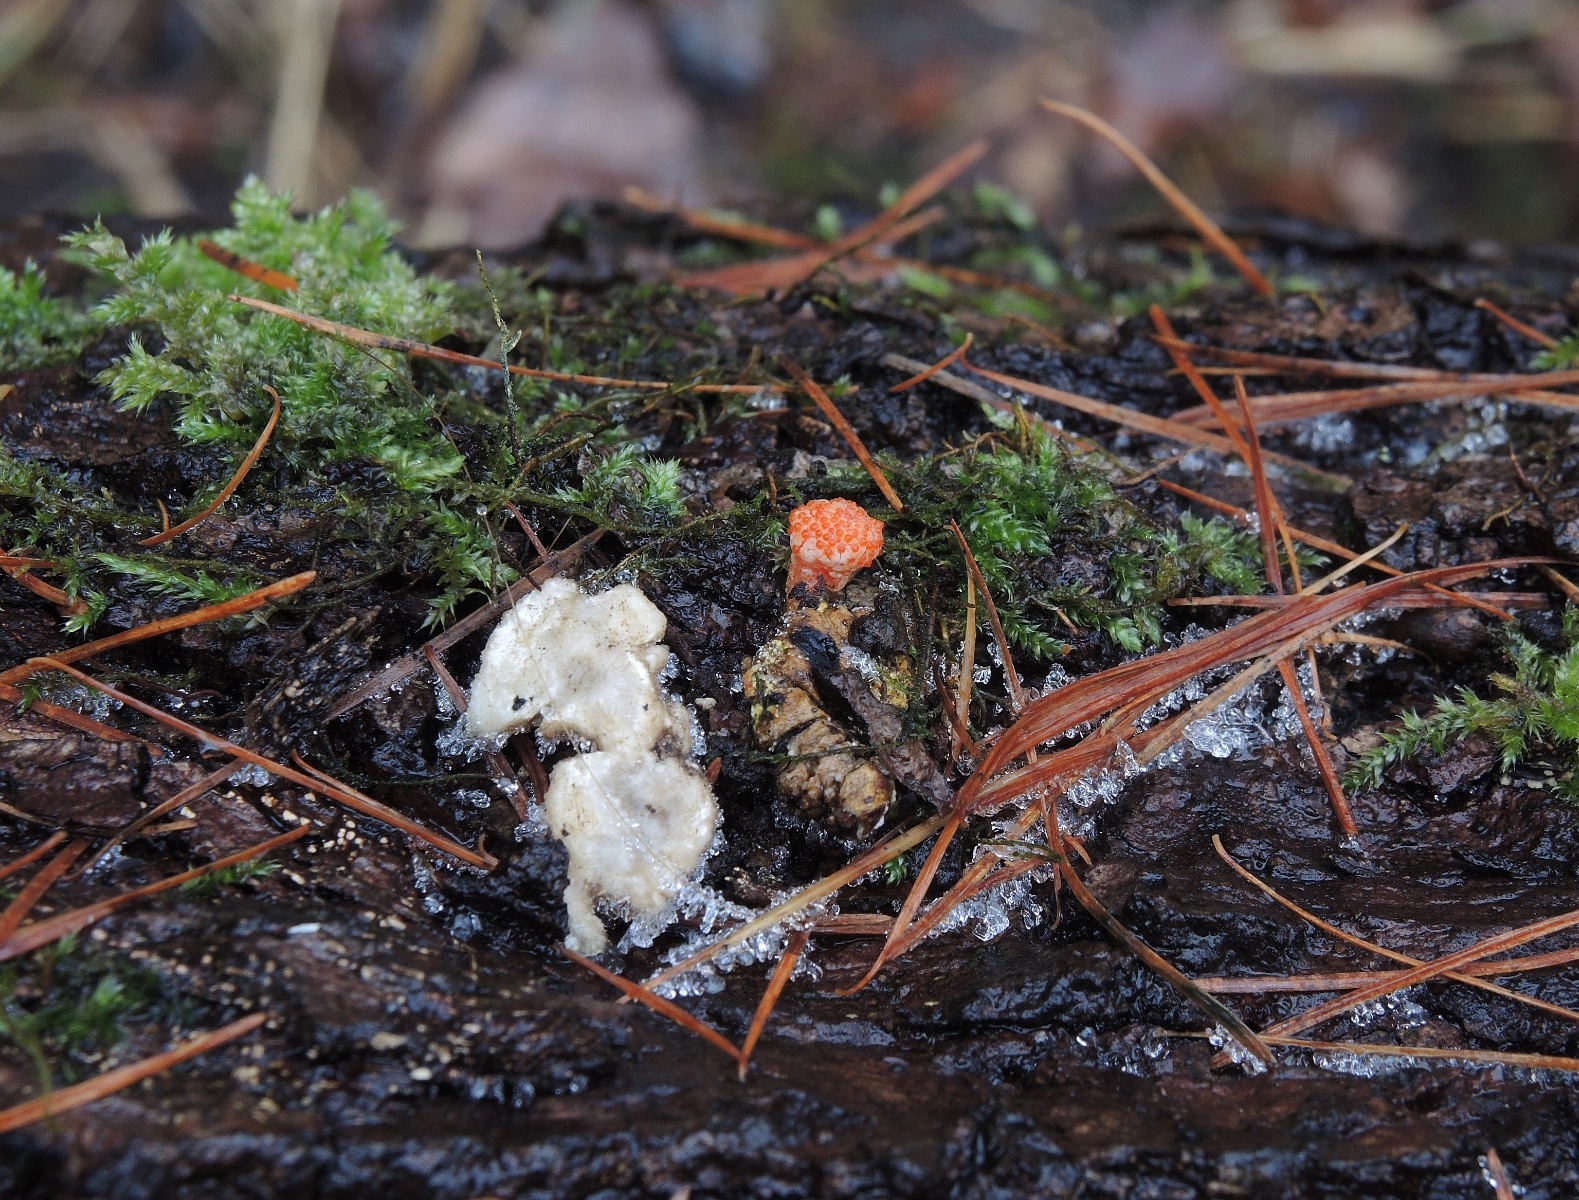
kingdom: Fungi
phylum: Ascomycota
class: Sordariomycetes
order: Hypocreales
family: Cordycipitaceae
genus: Cordyceps
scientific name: Cordyceps militaris
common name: puppe-snyltekølle
